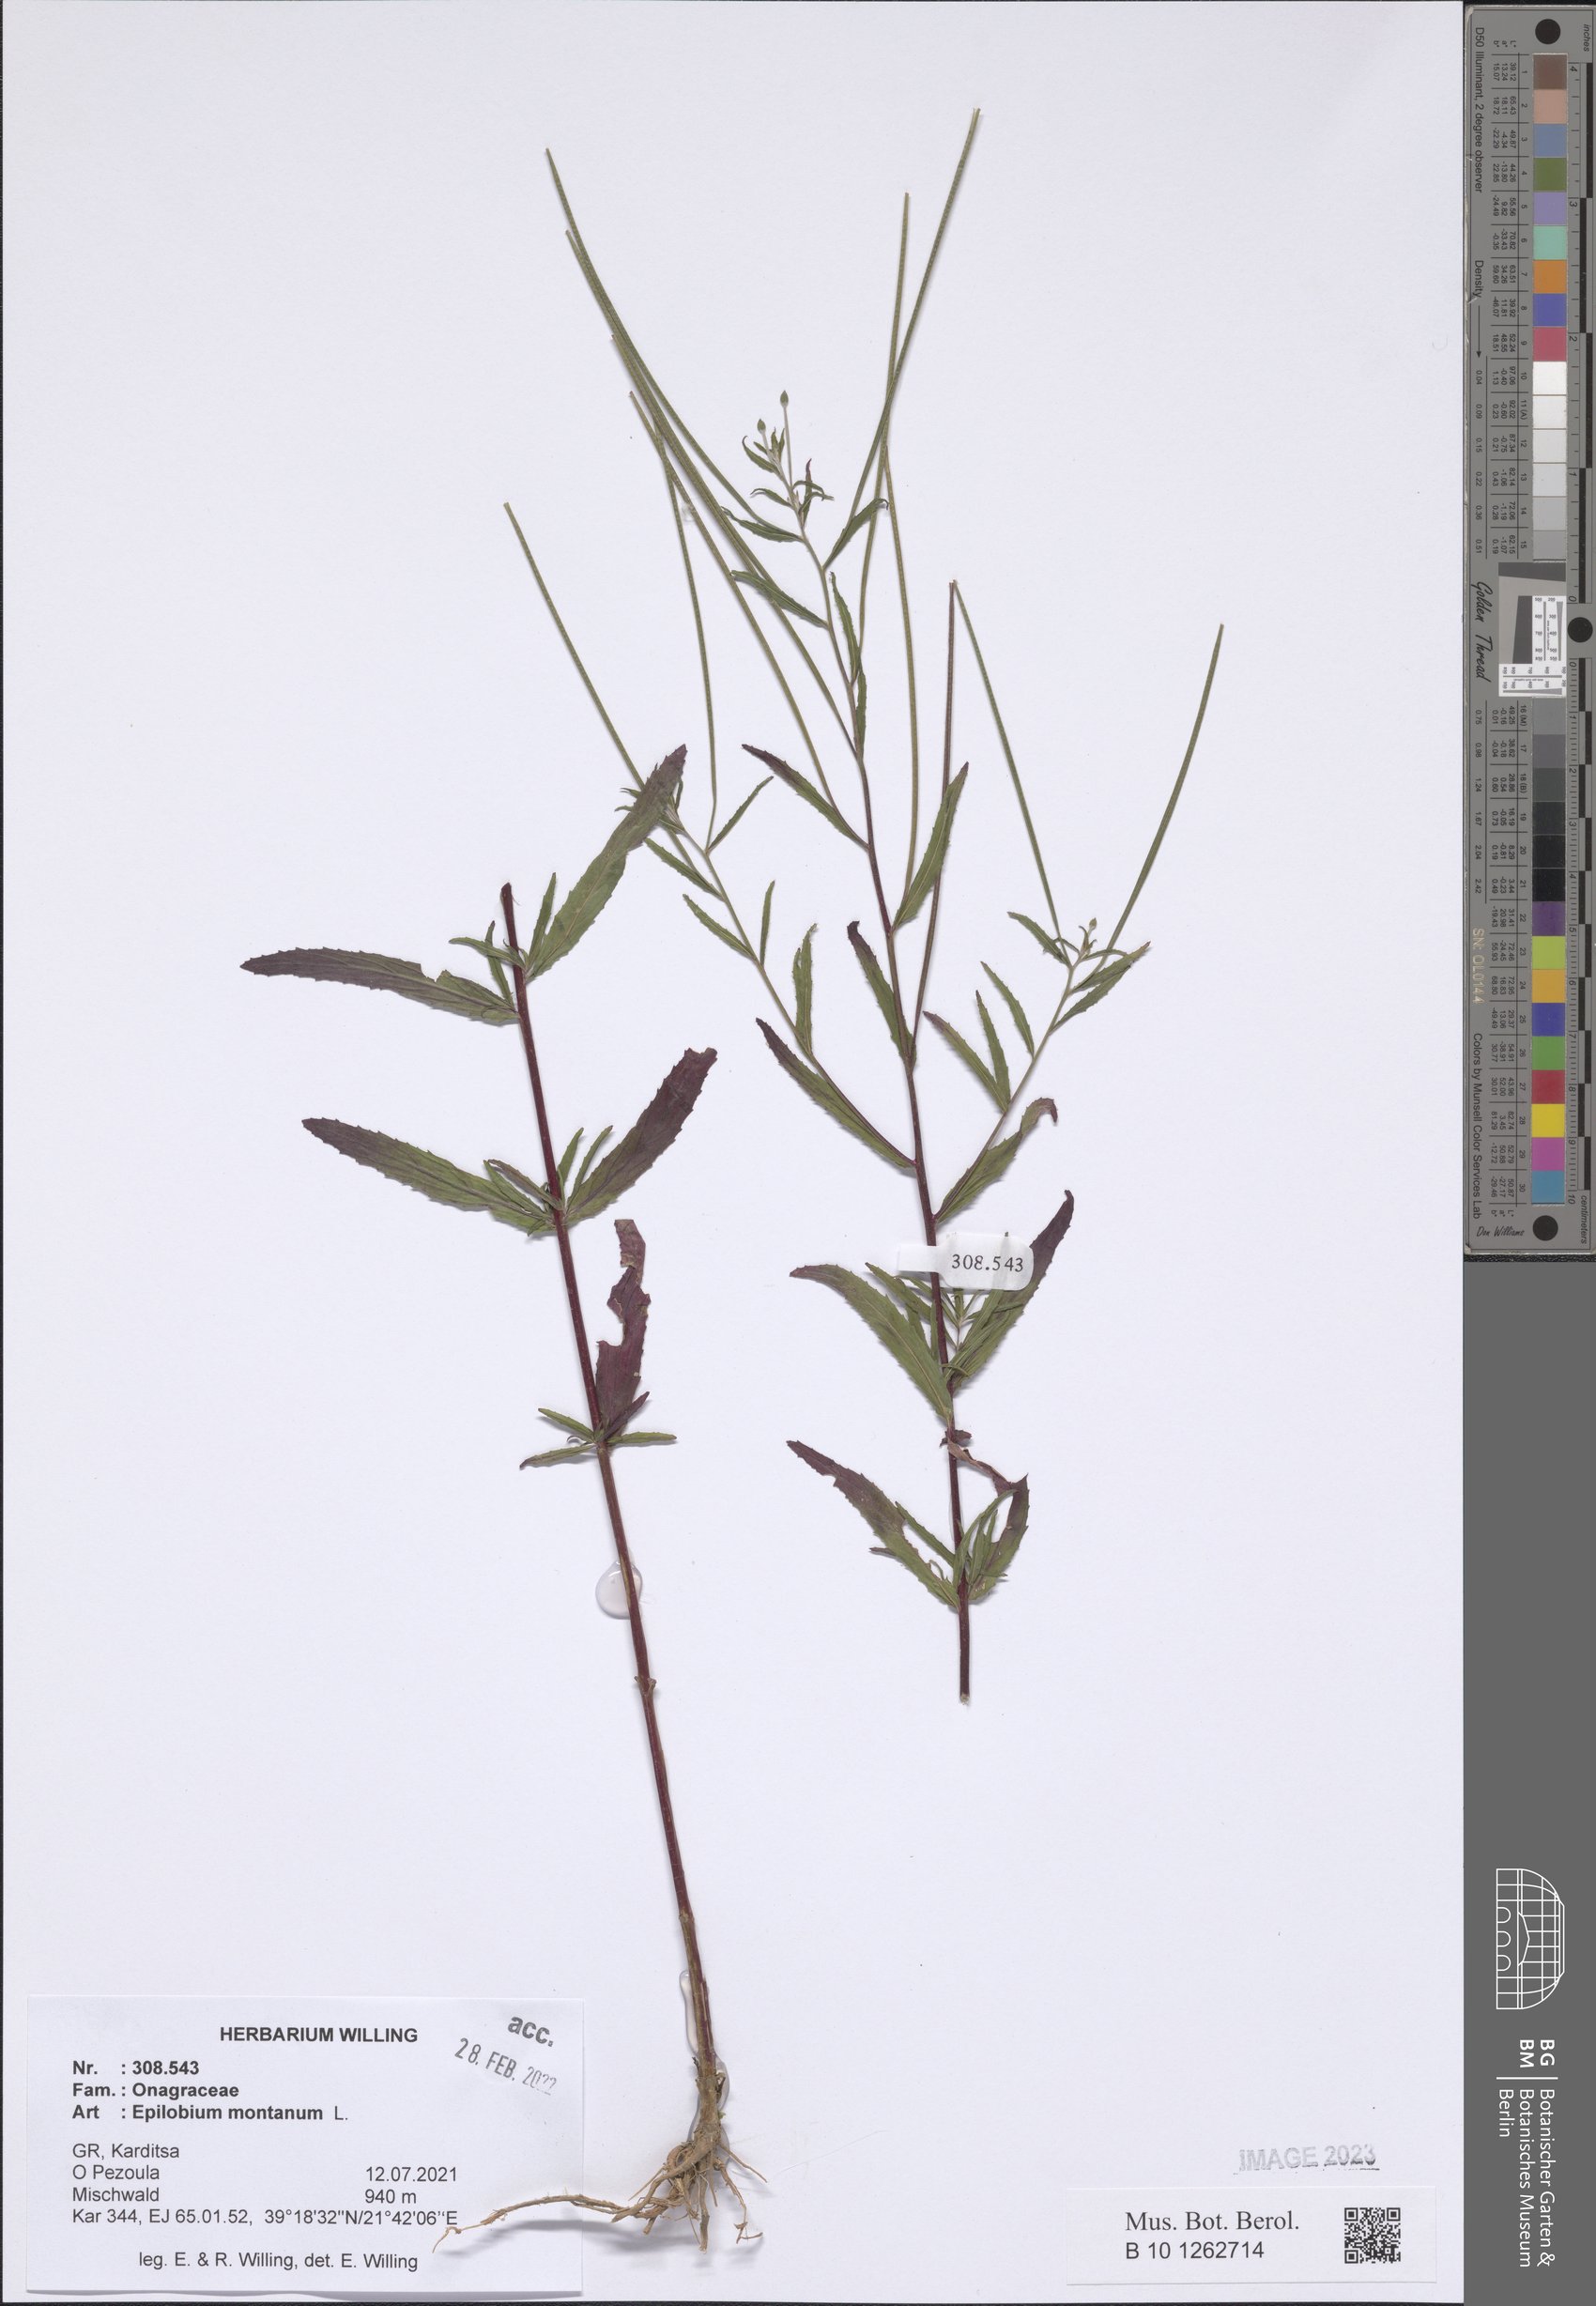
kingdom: Plantae
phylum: Tracheophyta
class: Magnoliopsida
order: Myrtales
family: Onagraceae
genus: Epilobium
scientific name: Epilobium montanum
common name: Broad-leaved willowherb
